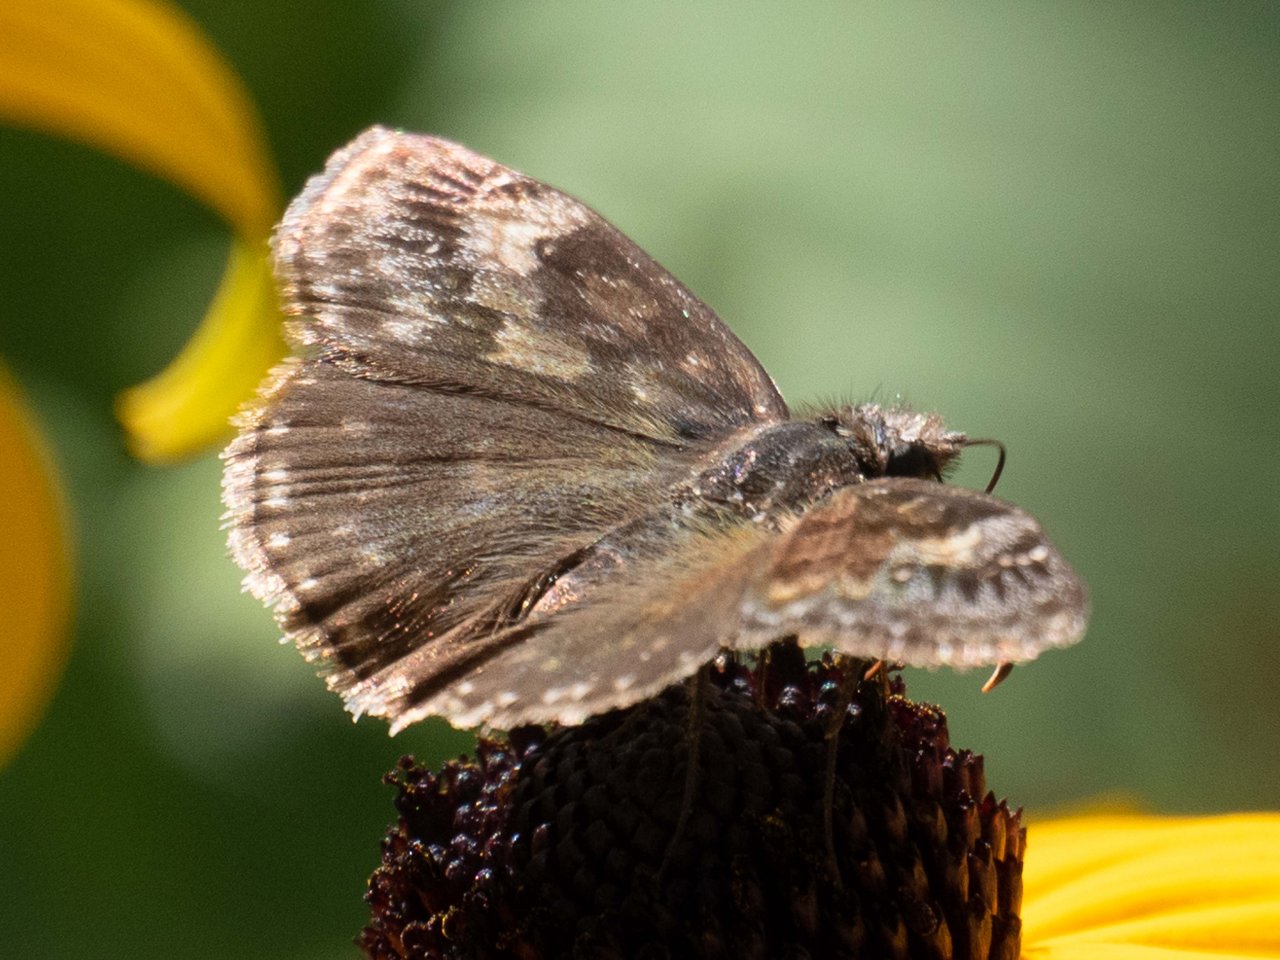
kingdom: Animalia
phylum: Arthropoda
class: Insecta
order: Lepidoptera
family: Hesperiidae
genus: Gesta
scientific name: Gesta
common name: Wild Indigo Duskywing
